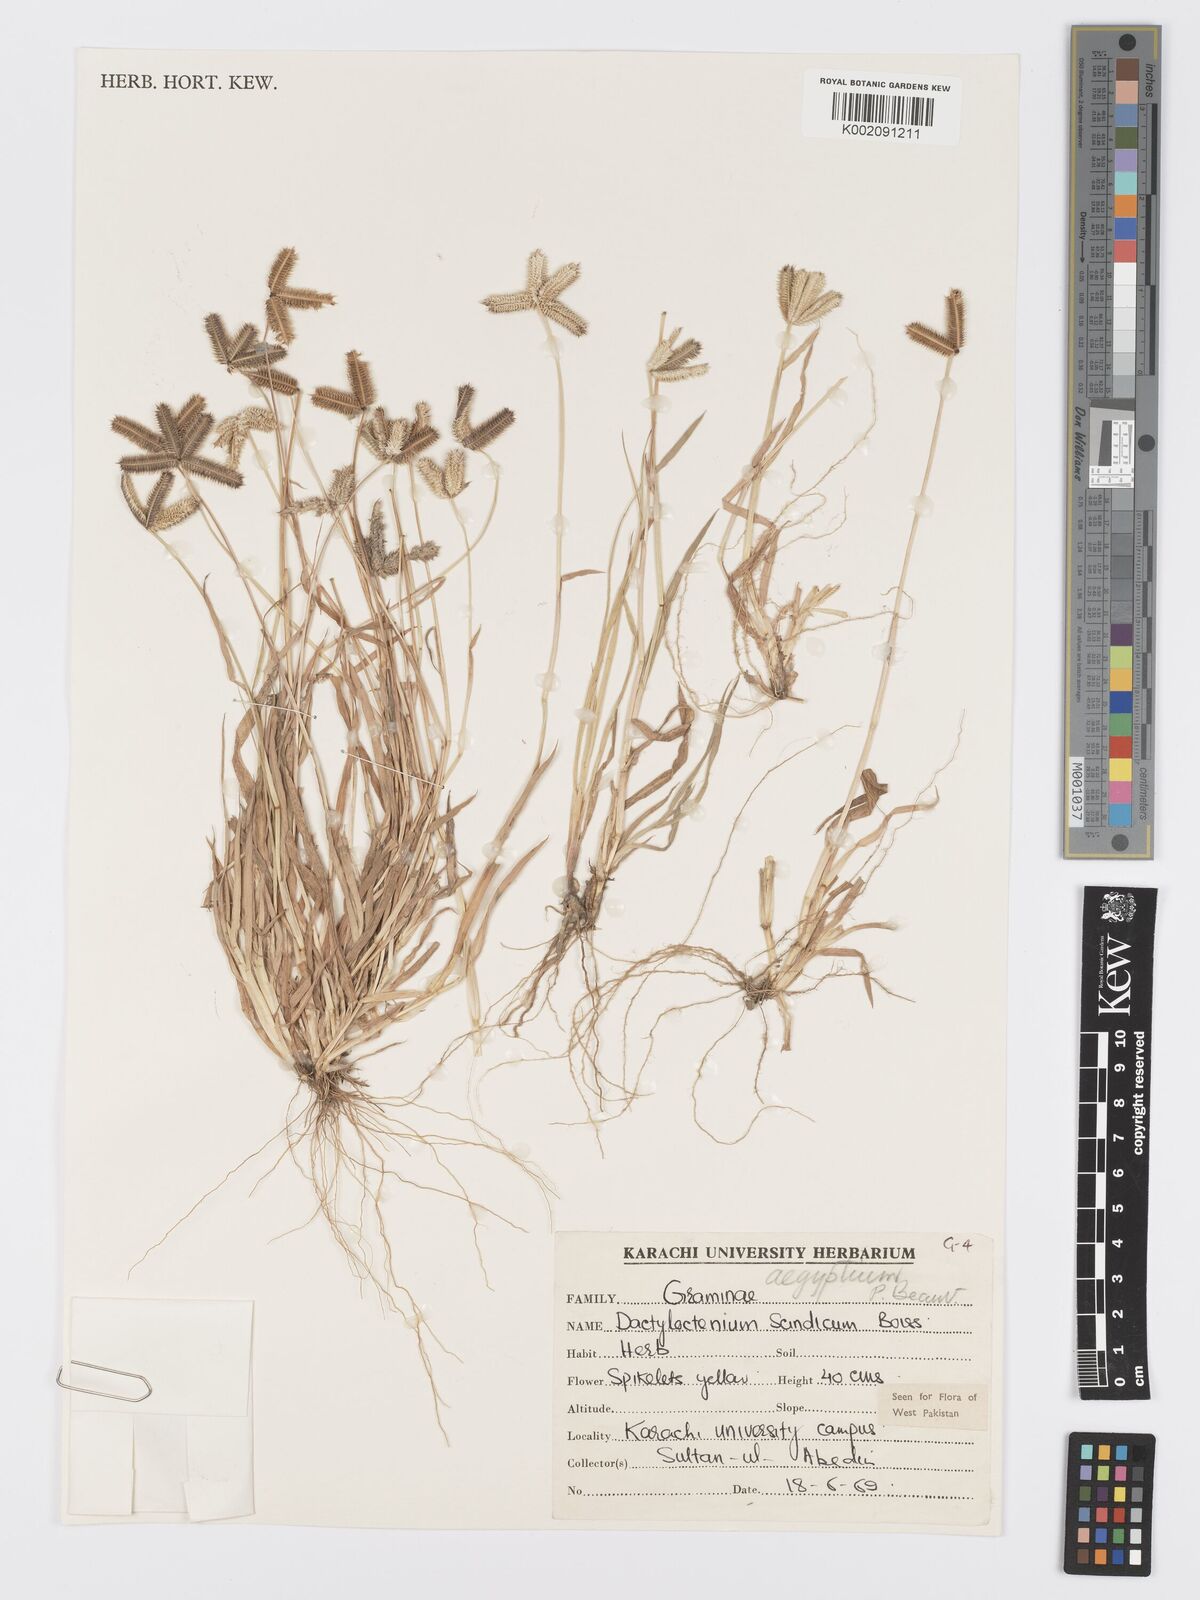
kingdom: Plantae
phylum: Tracheophyta
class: Liliopsida
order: Poales
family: Poaceae
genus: Dactyloctenium
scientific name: Dactyloctenium aegyptium
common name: Egyptian grass
